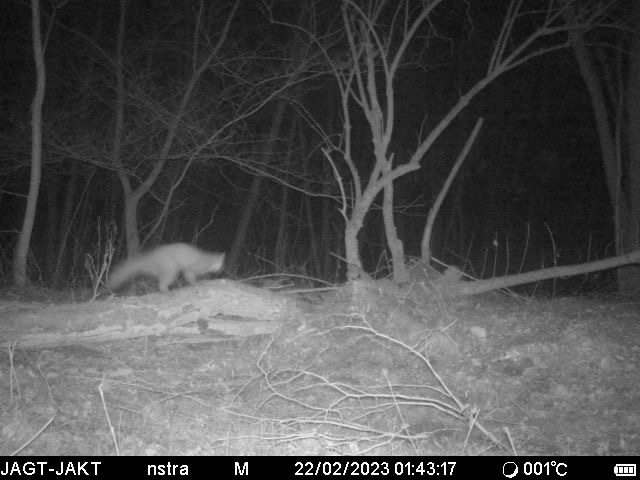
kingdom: Animalia
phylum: Chordata
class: Mammalia
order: Carnivora
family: Mustelidae
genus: Martes
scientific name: Martes foina
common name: Husmår
